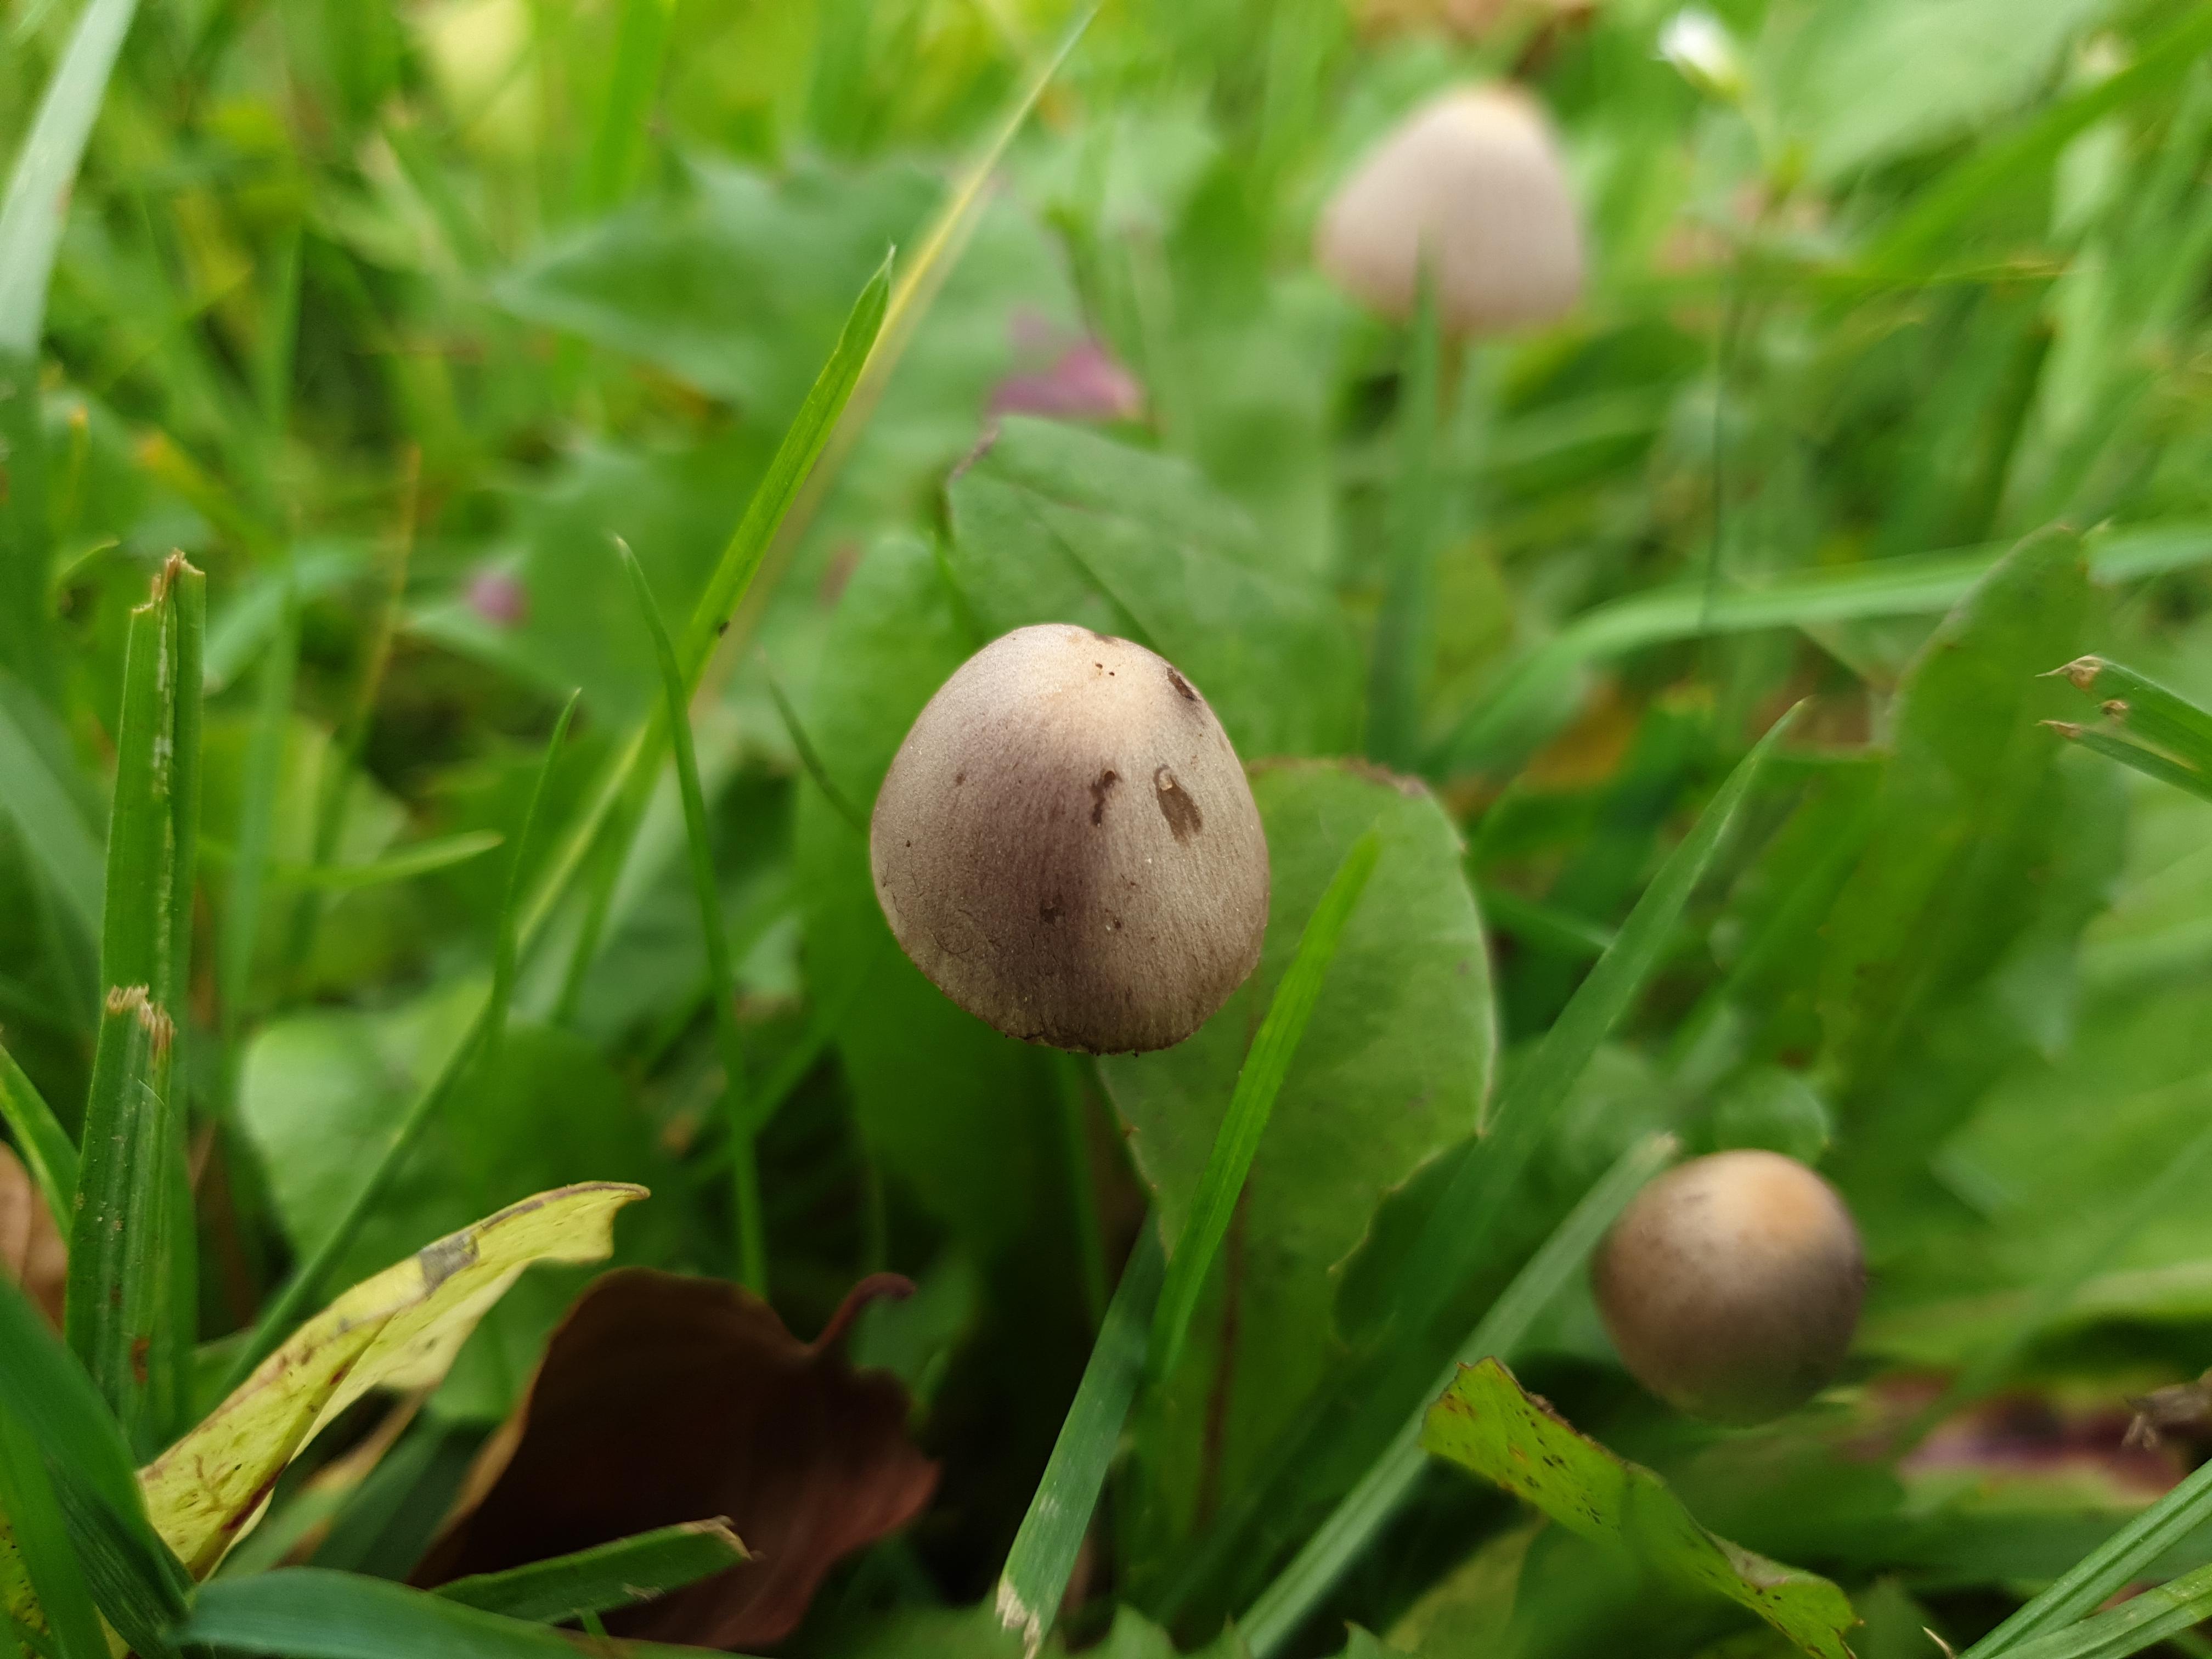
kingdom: Fungi
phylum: Basidiomycota
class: Agaricomycetes
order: Agaricales
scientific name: Agaricales
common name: champignonordenen
